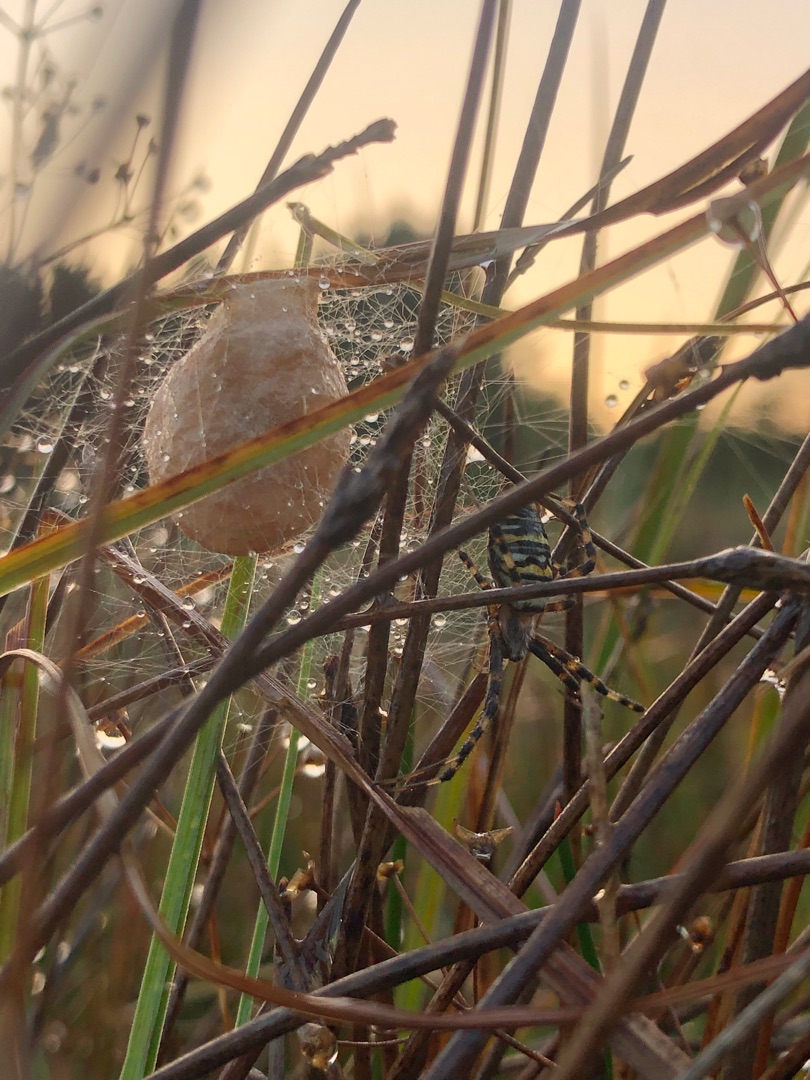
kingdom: Animalia
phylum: Arthropoda
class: Arachnida
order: Araneae
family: Araneidae
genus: Argiope
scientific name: Argiope bruennichi
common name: Hvepseedderkop
